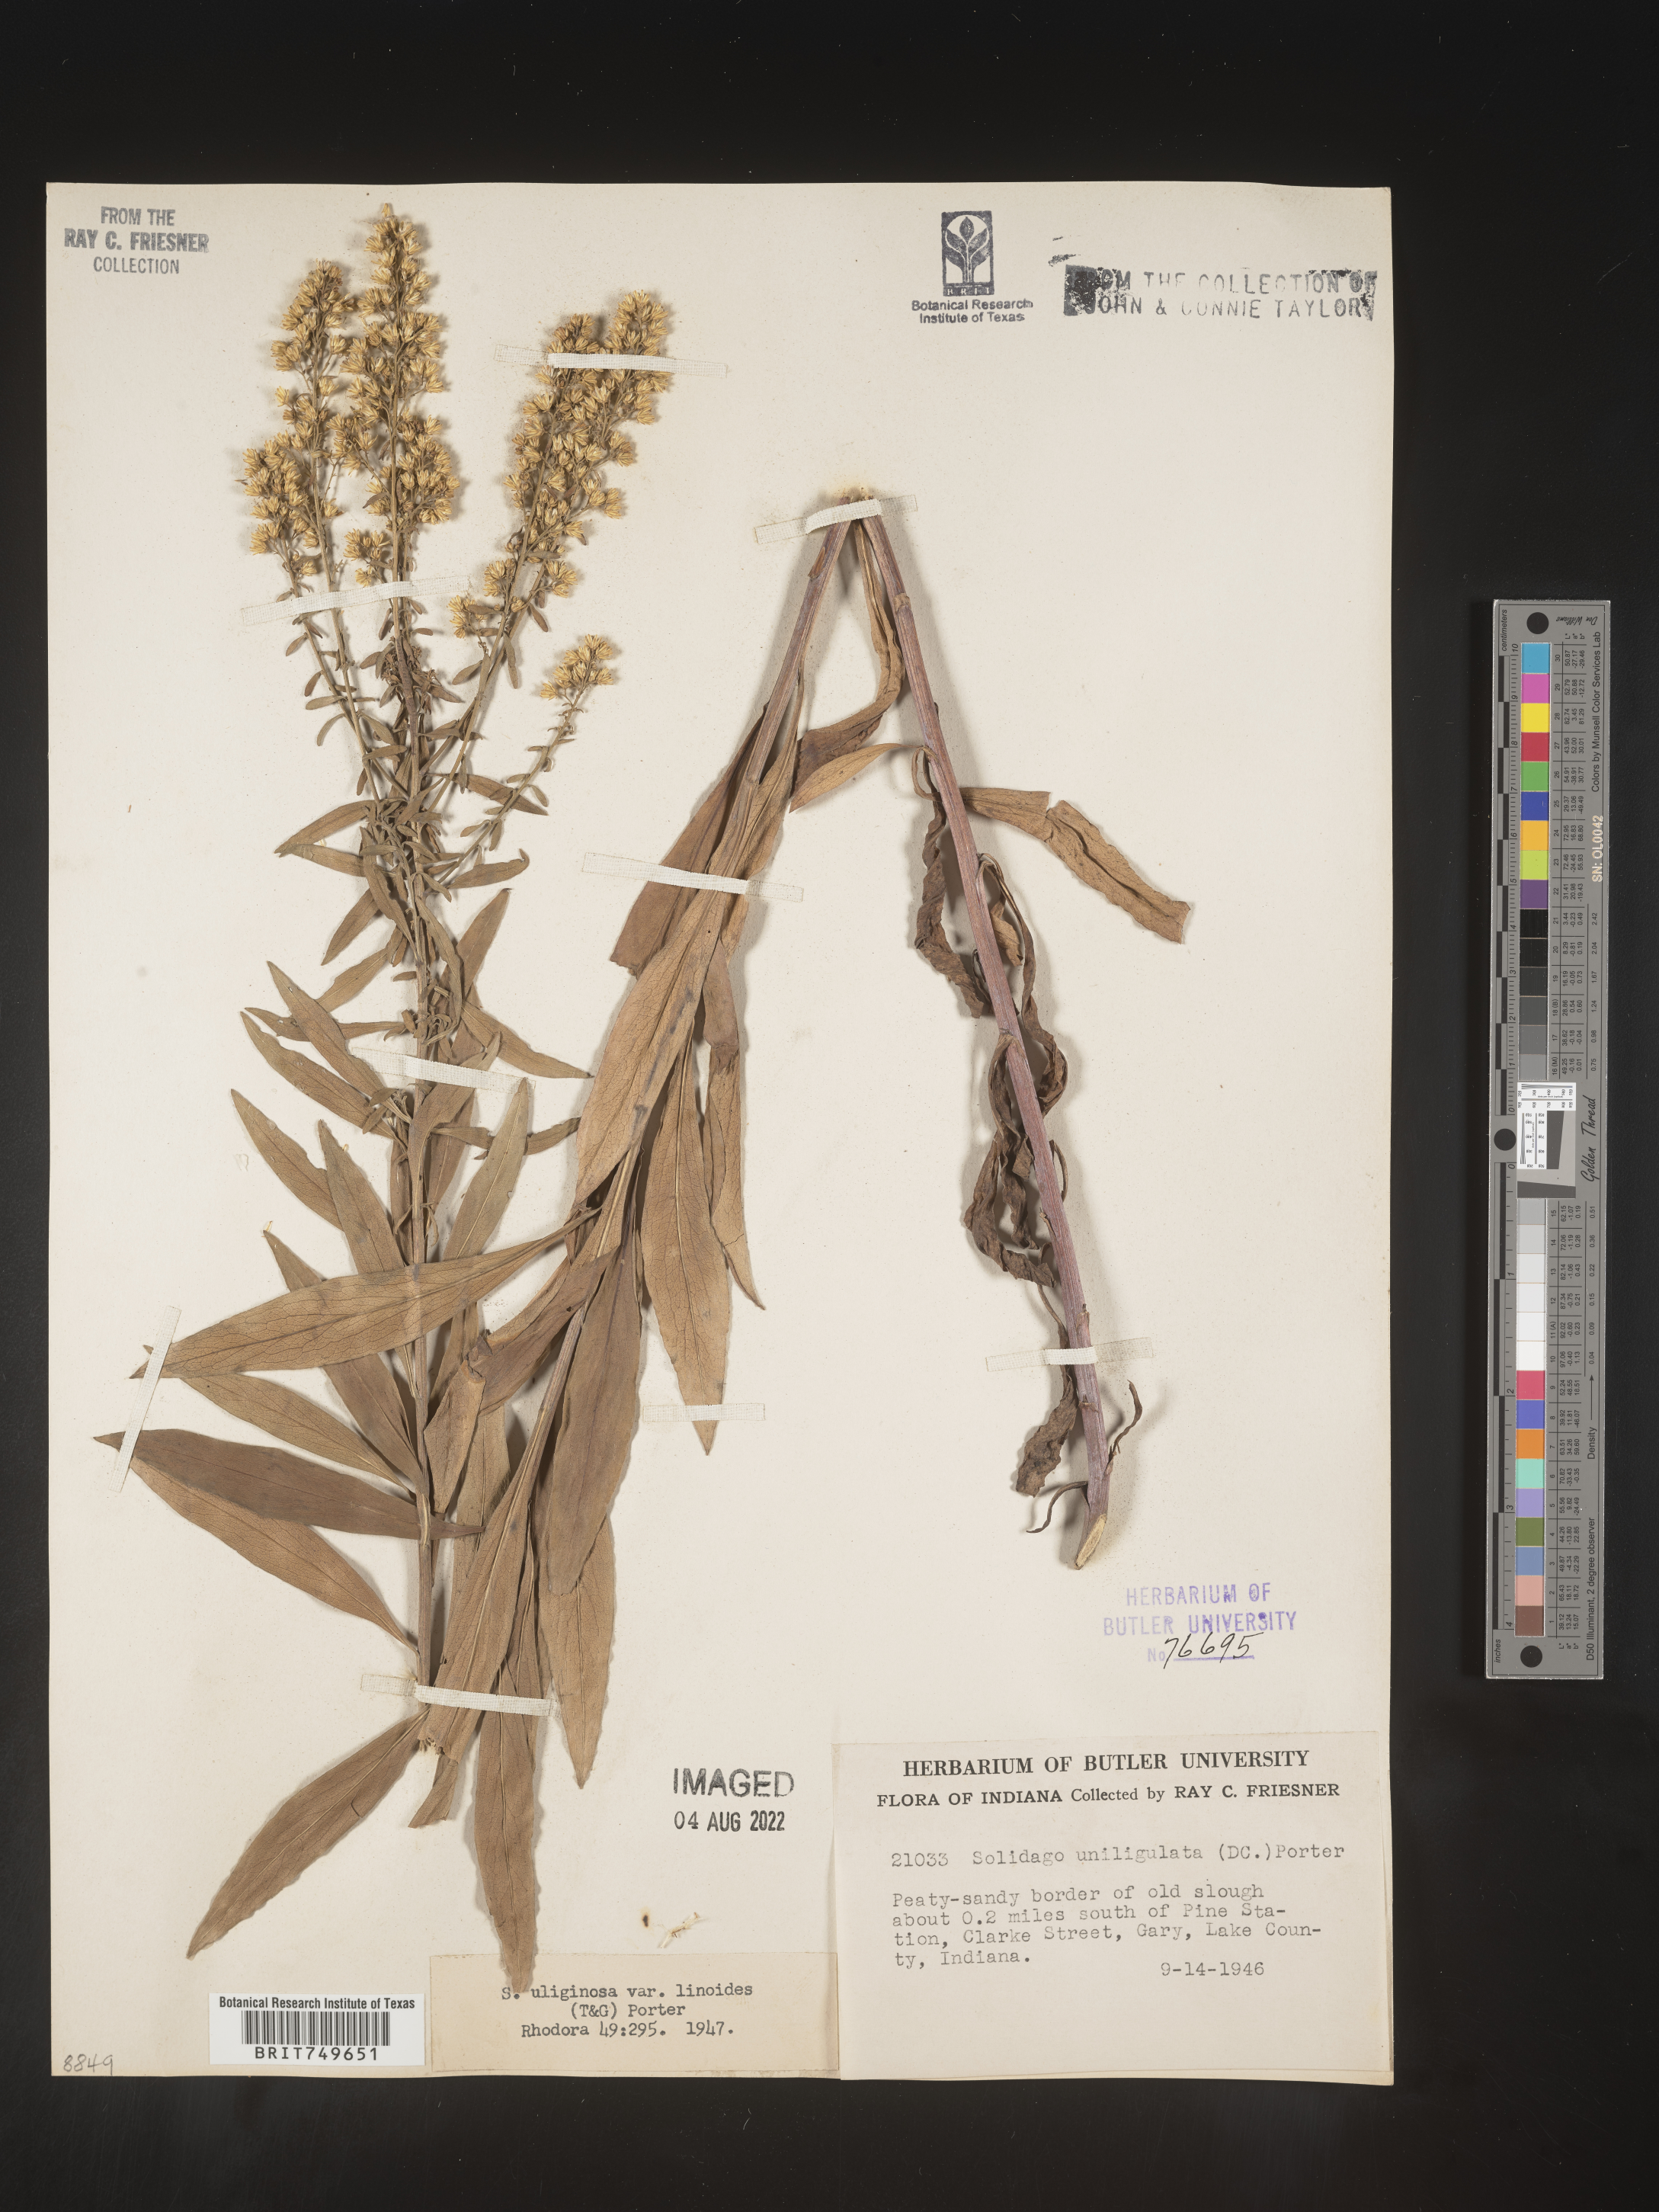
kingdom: Plantae
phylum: Tracheophyta
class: Magnoliopsida
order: Asterales
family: Asteraceae
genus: Solidago
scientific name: Solidago uliginosa
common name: Bog goldenrod
